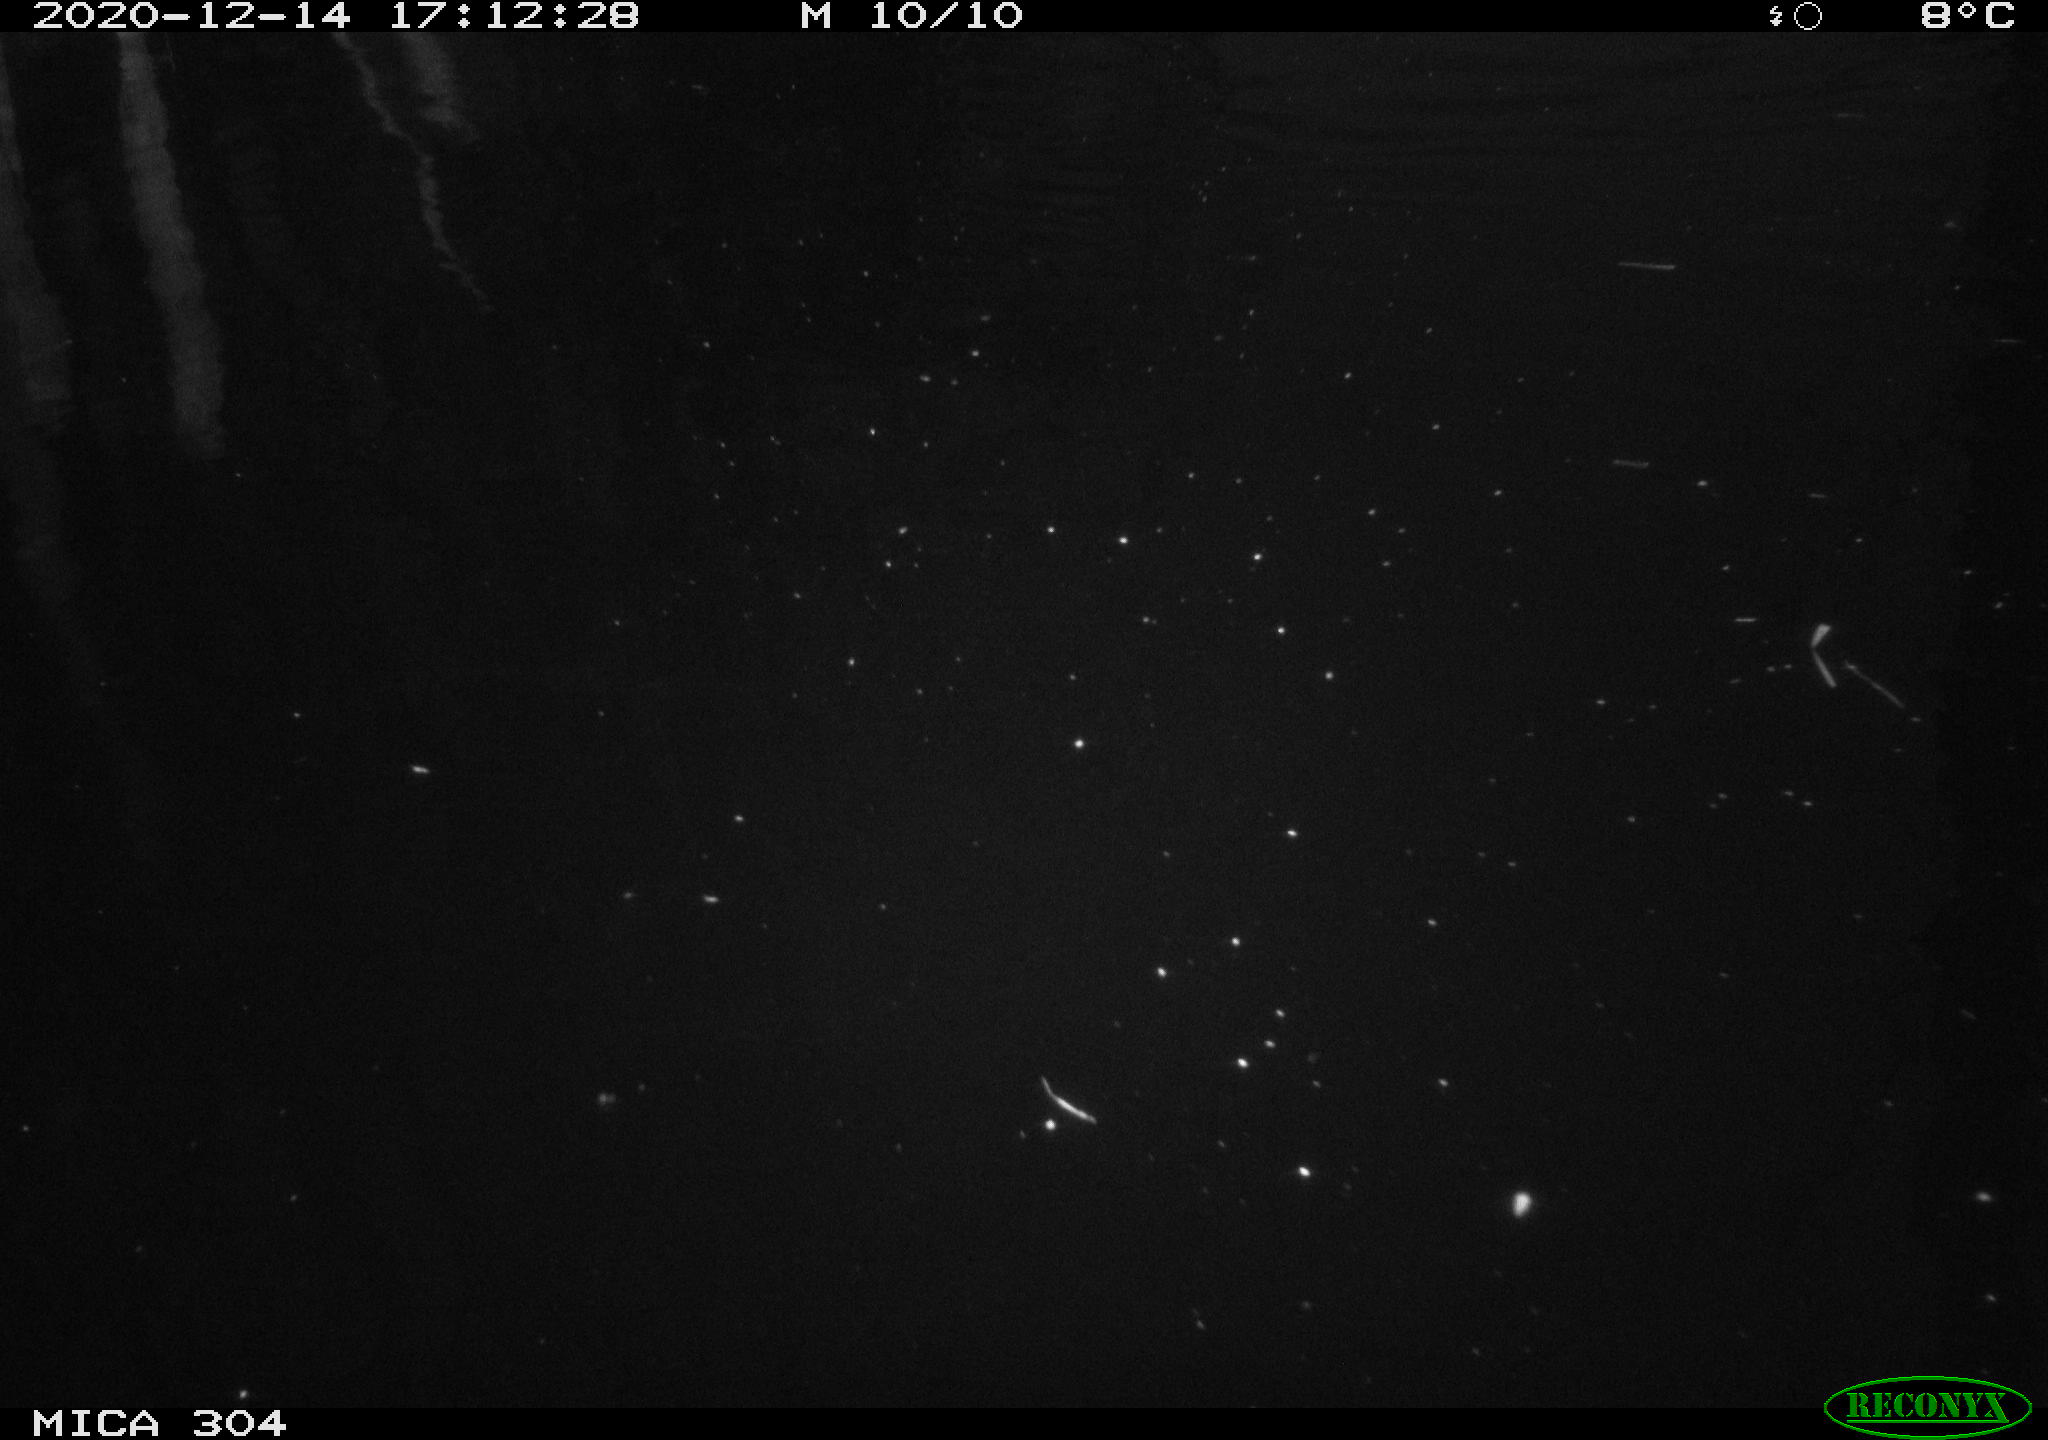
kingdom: Animalia
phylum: Chordata
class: Aves
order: Gruiformes
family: Rallidae
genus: Fulica
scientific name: Fulica atra
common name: Eurasian coot
